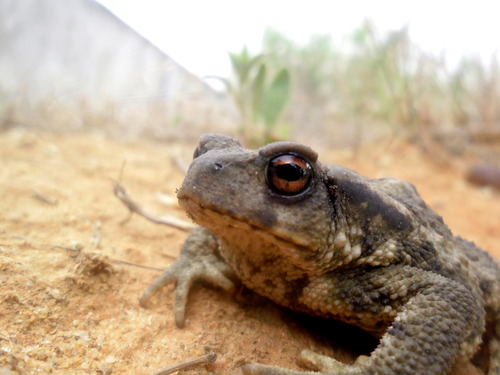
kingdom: Animalia
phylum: Chordata
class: Amphibia
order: Anura
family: Bufonidae
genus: Bufo
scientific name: Bufo spinosus
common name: Western common toad
